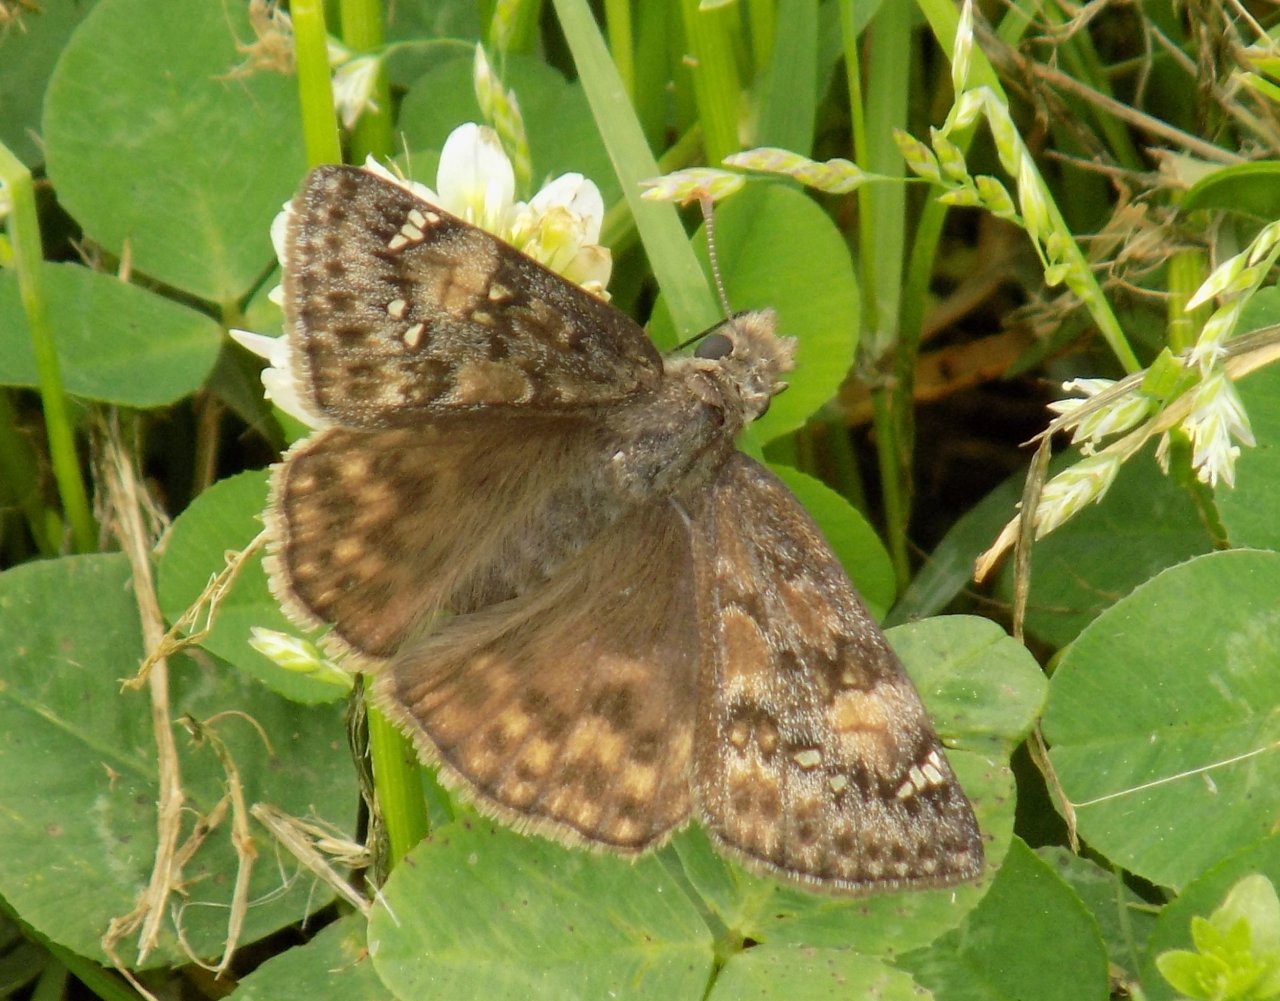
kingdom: Animalia
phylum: Arthropoda
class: Insecta
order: Lepidoptera
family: Hesperiidae
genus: Gesta
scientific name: Gesta
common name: Juvenal's Duskywing
